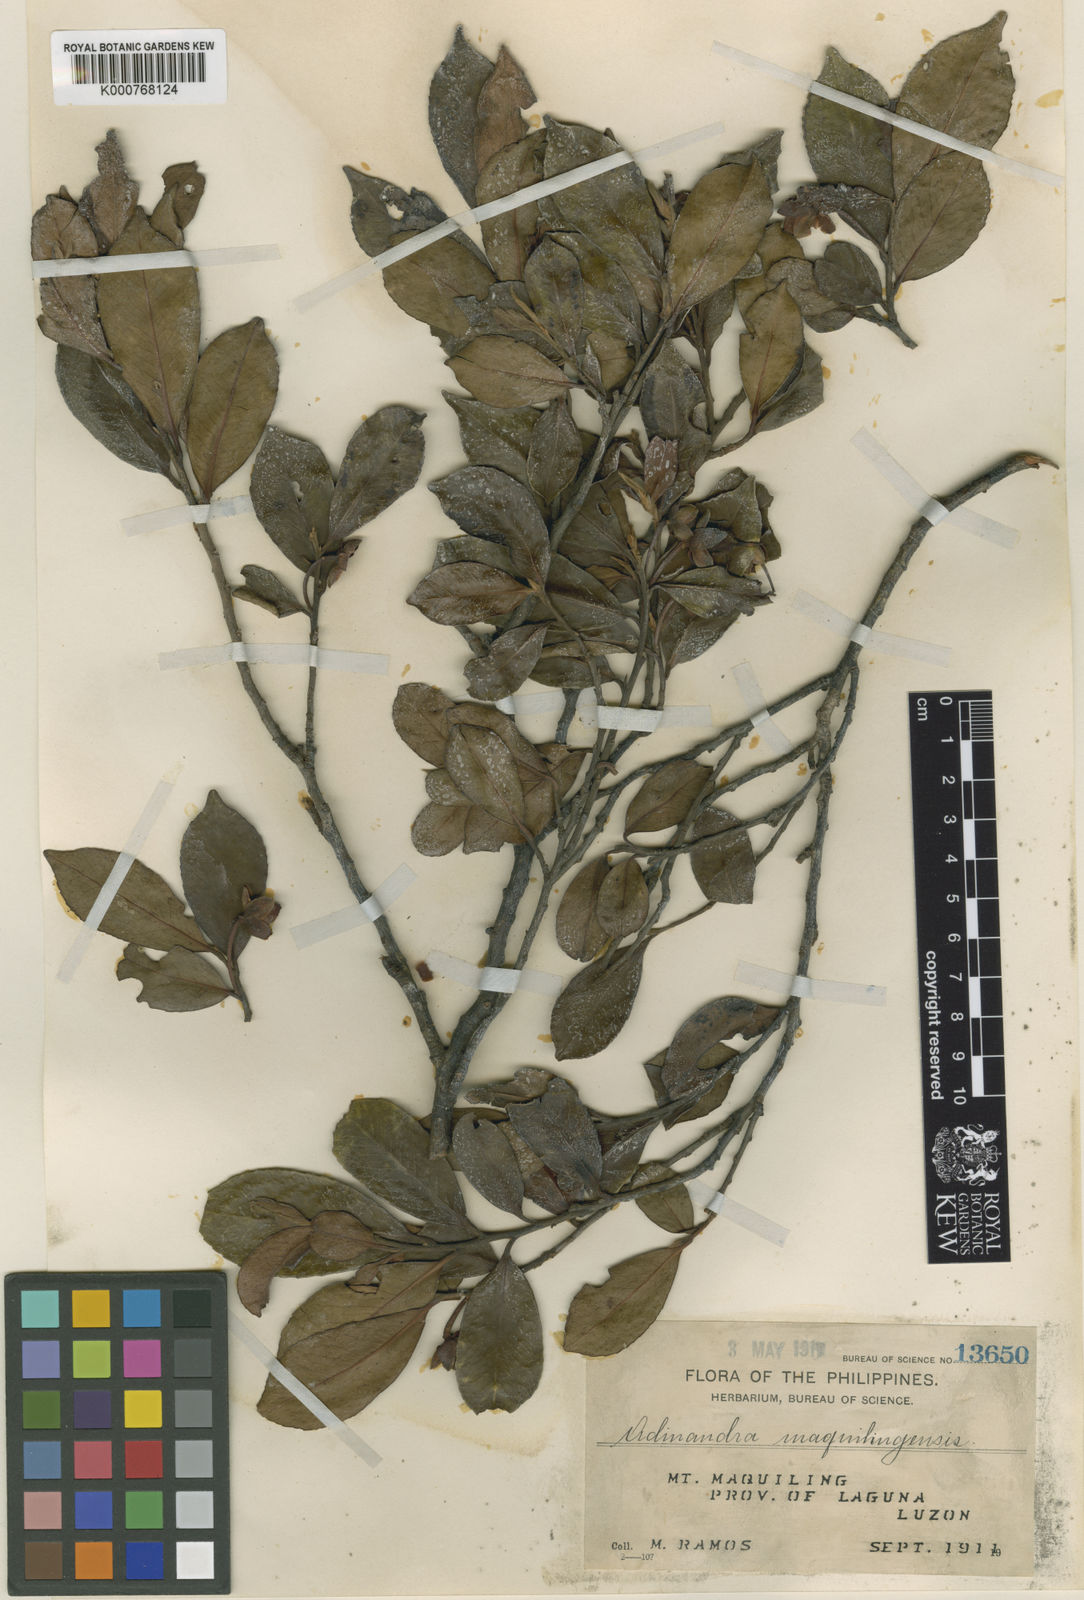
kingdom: Plantae
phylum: Tracheophyta
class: Magnoliopsida
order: Ericales
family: Pentaphylacaceae
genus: Adinandra
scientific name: Adinandra
